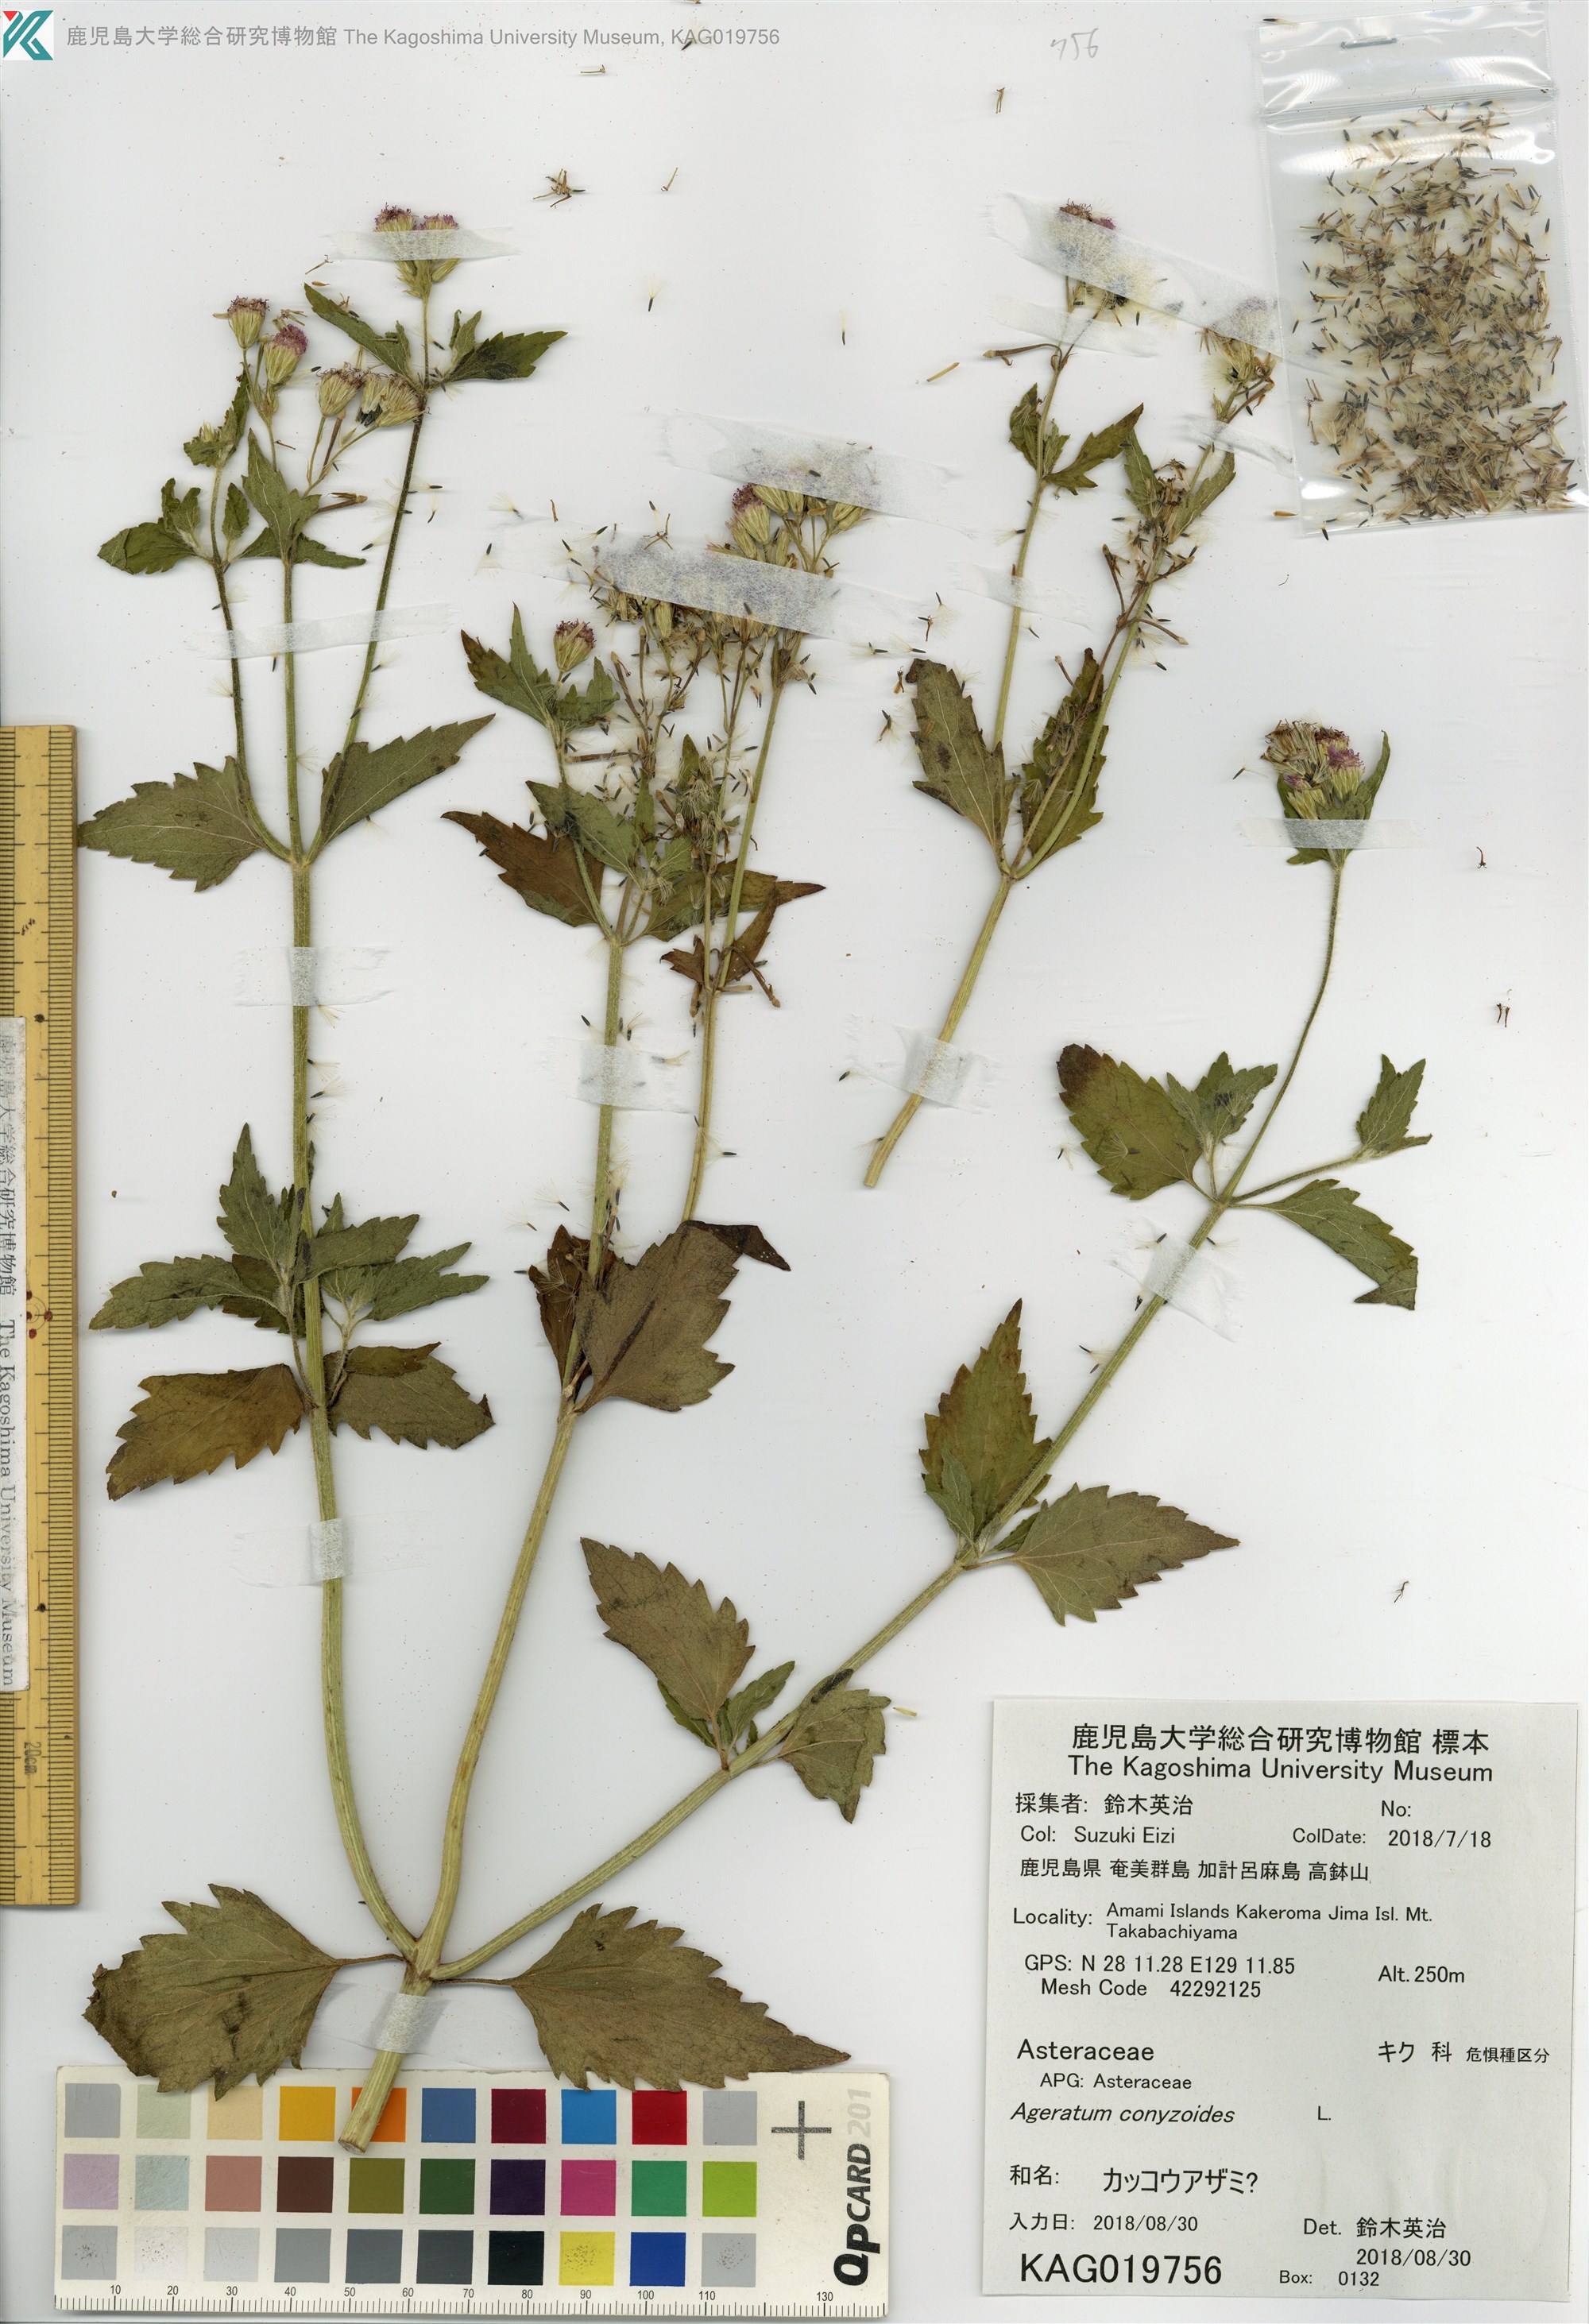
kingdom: Plantae
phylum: Tracheophyta
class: Magnoliopsida
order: Asterales
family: Asteraceae
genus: Ageratum
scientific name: Ageratum houstonianum
